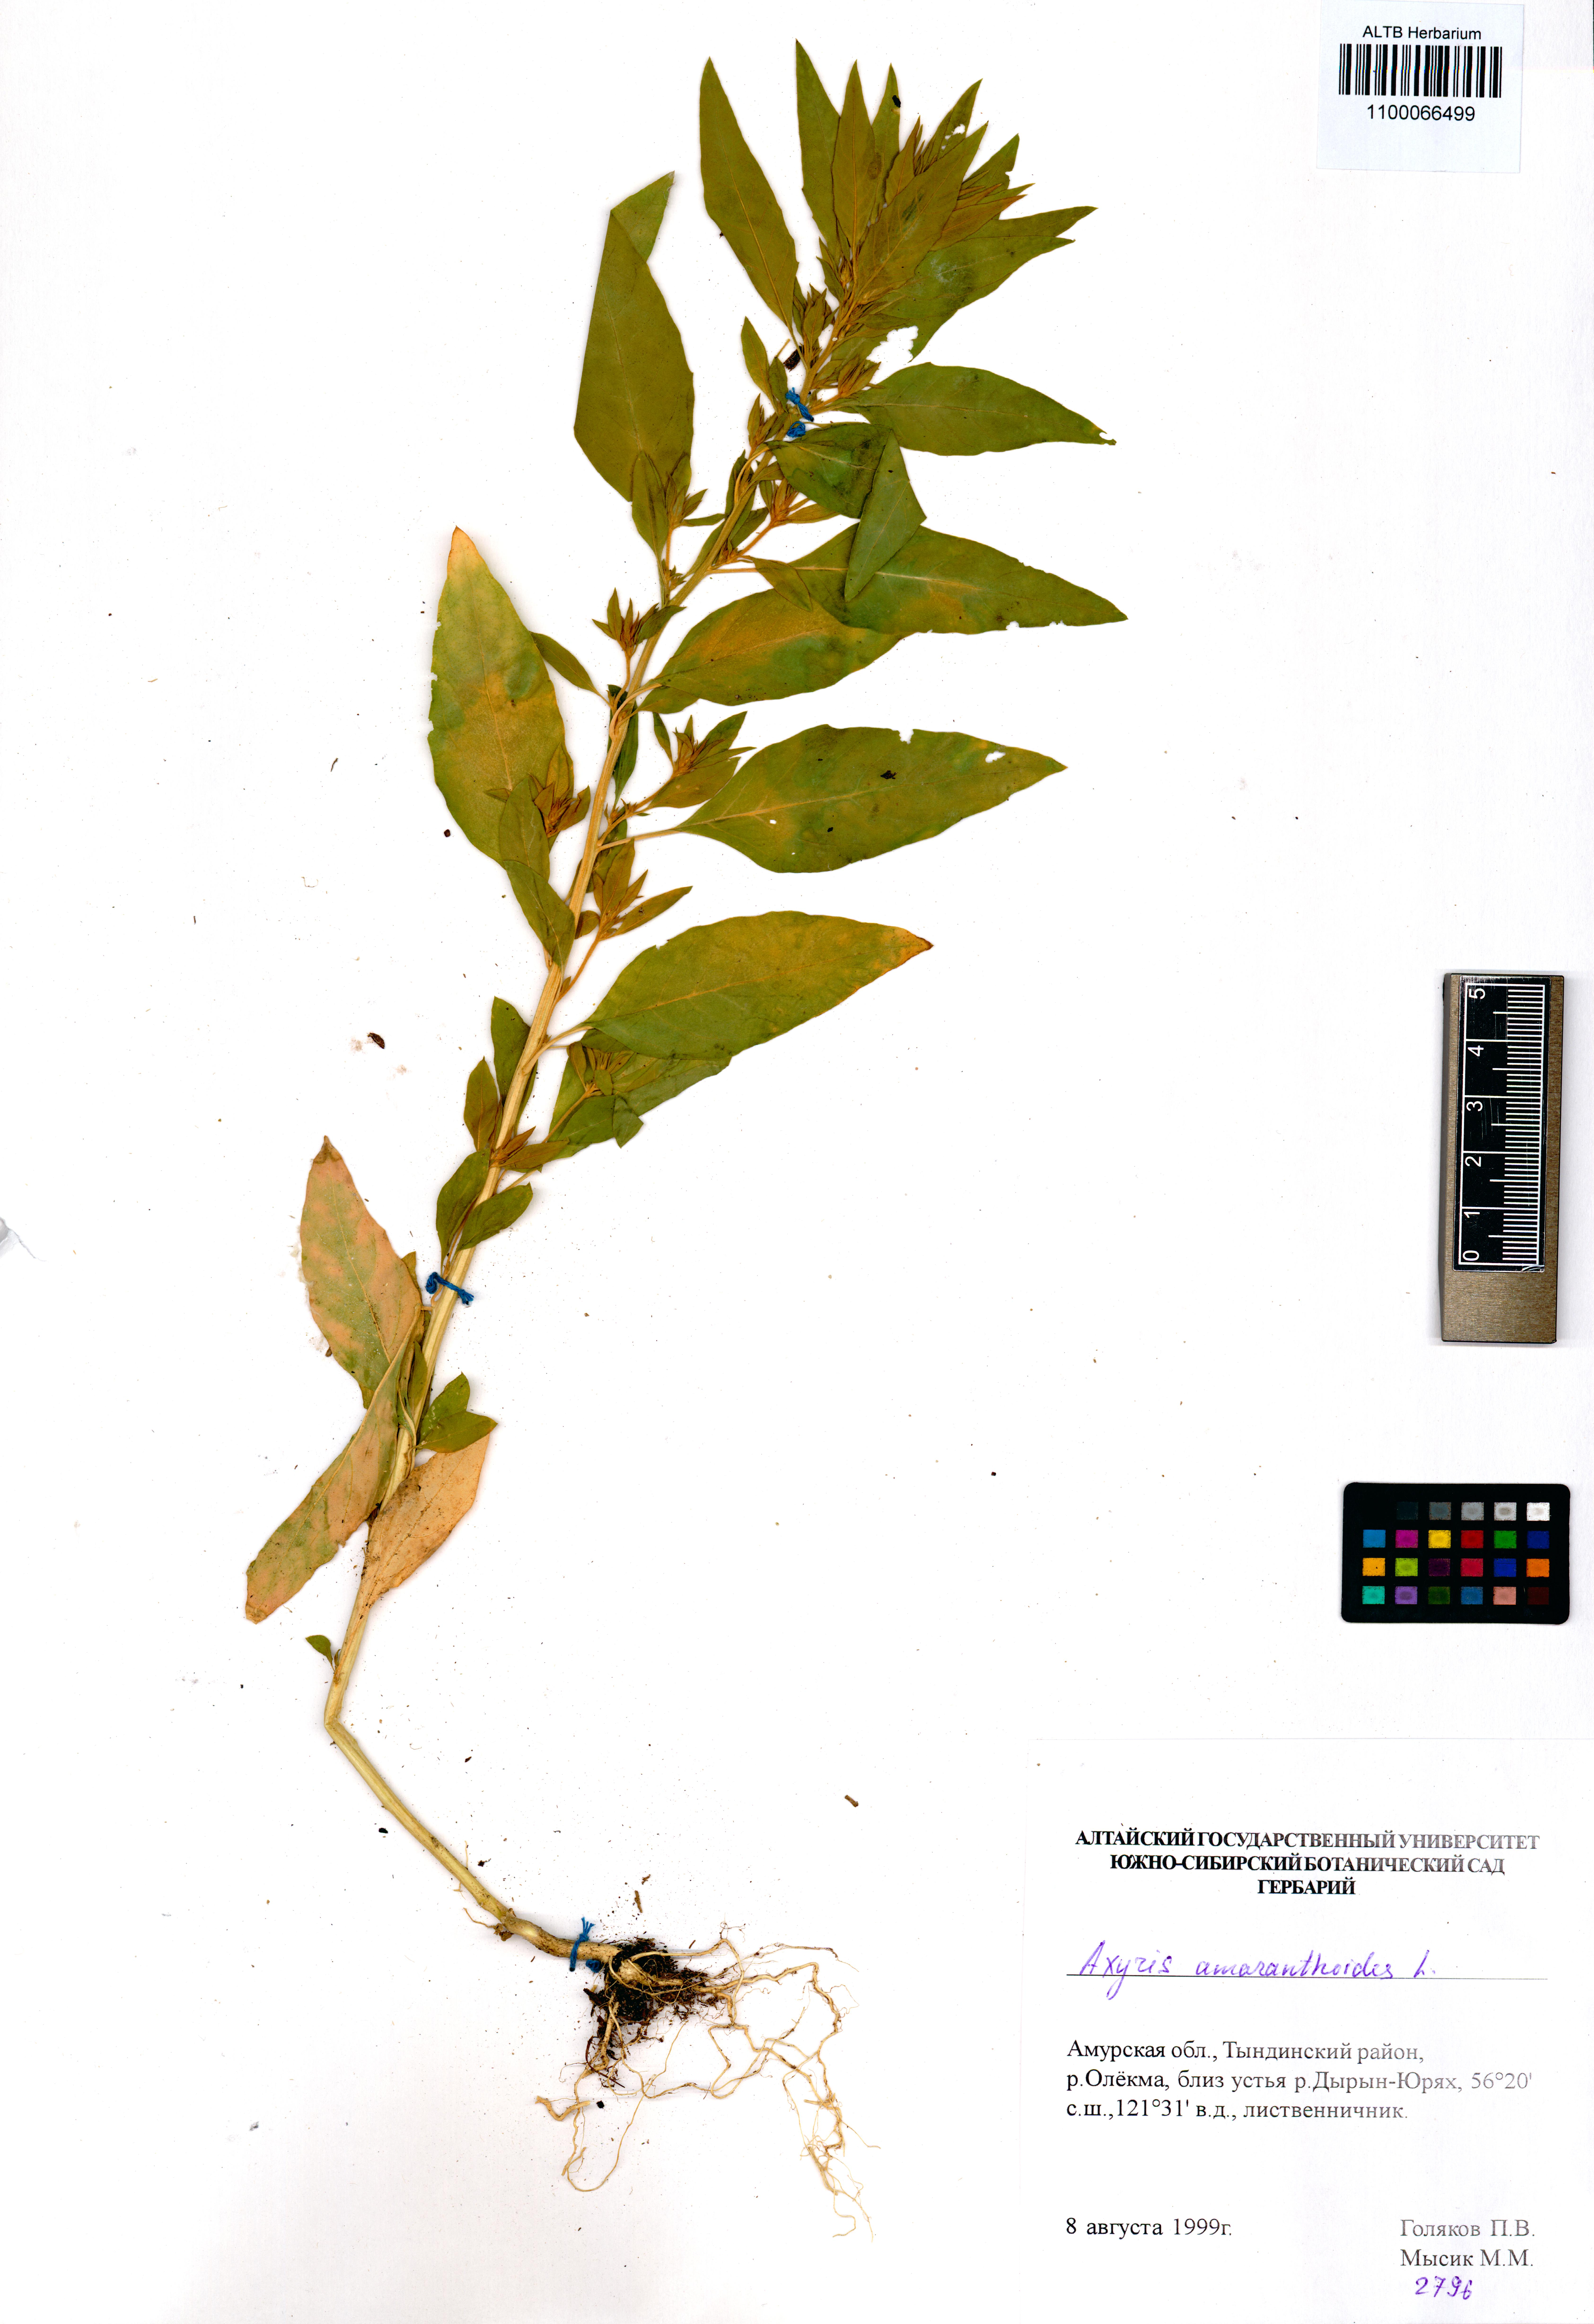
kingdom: Plantae
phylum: Tracheophyta
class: Magnoliopsida
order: Caryophyllales
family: Amaranthaceae
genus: Axyris
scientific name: Axyris amaranthoides
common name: Russian pigweed
